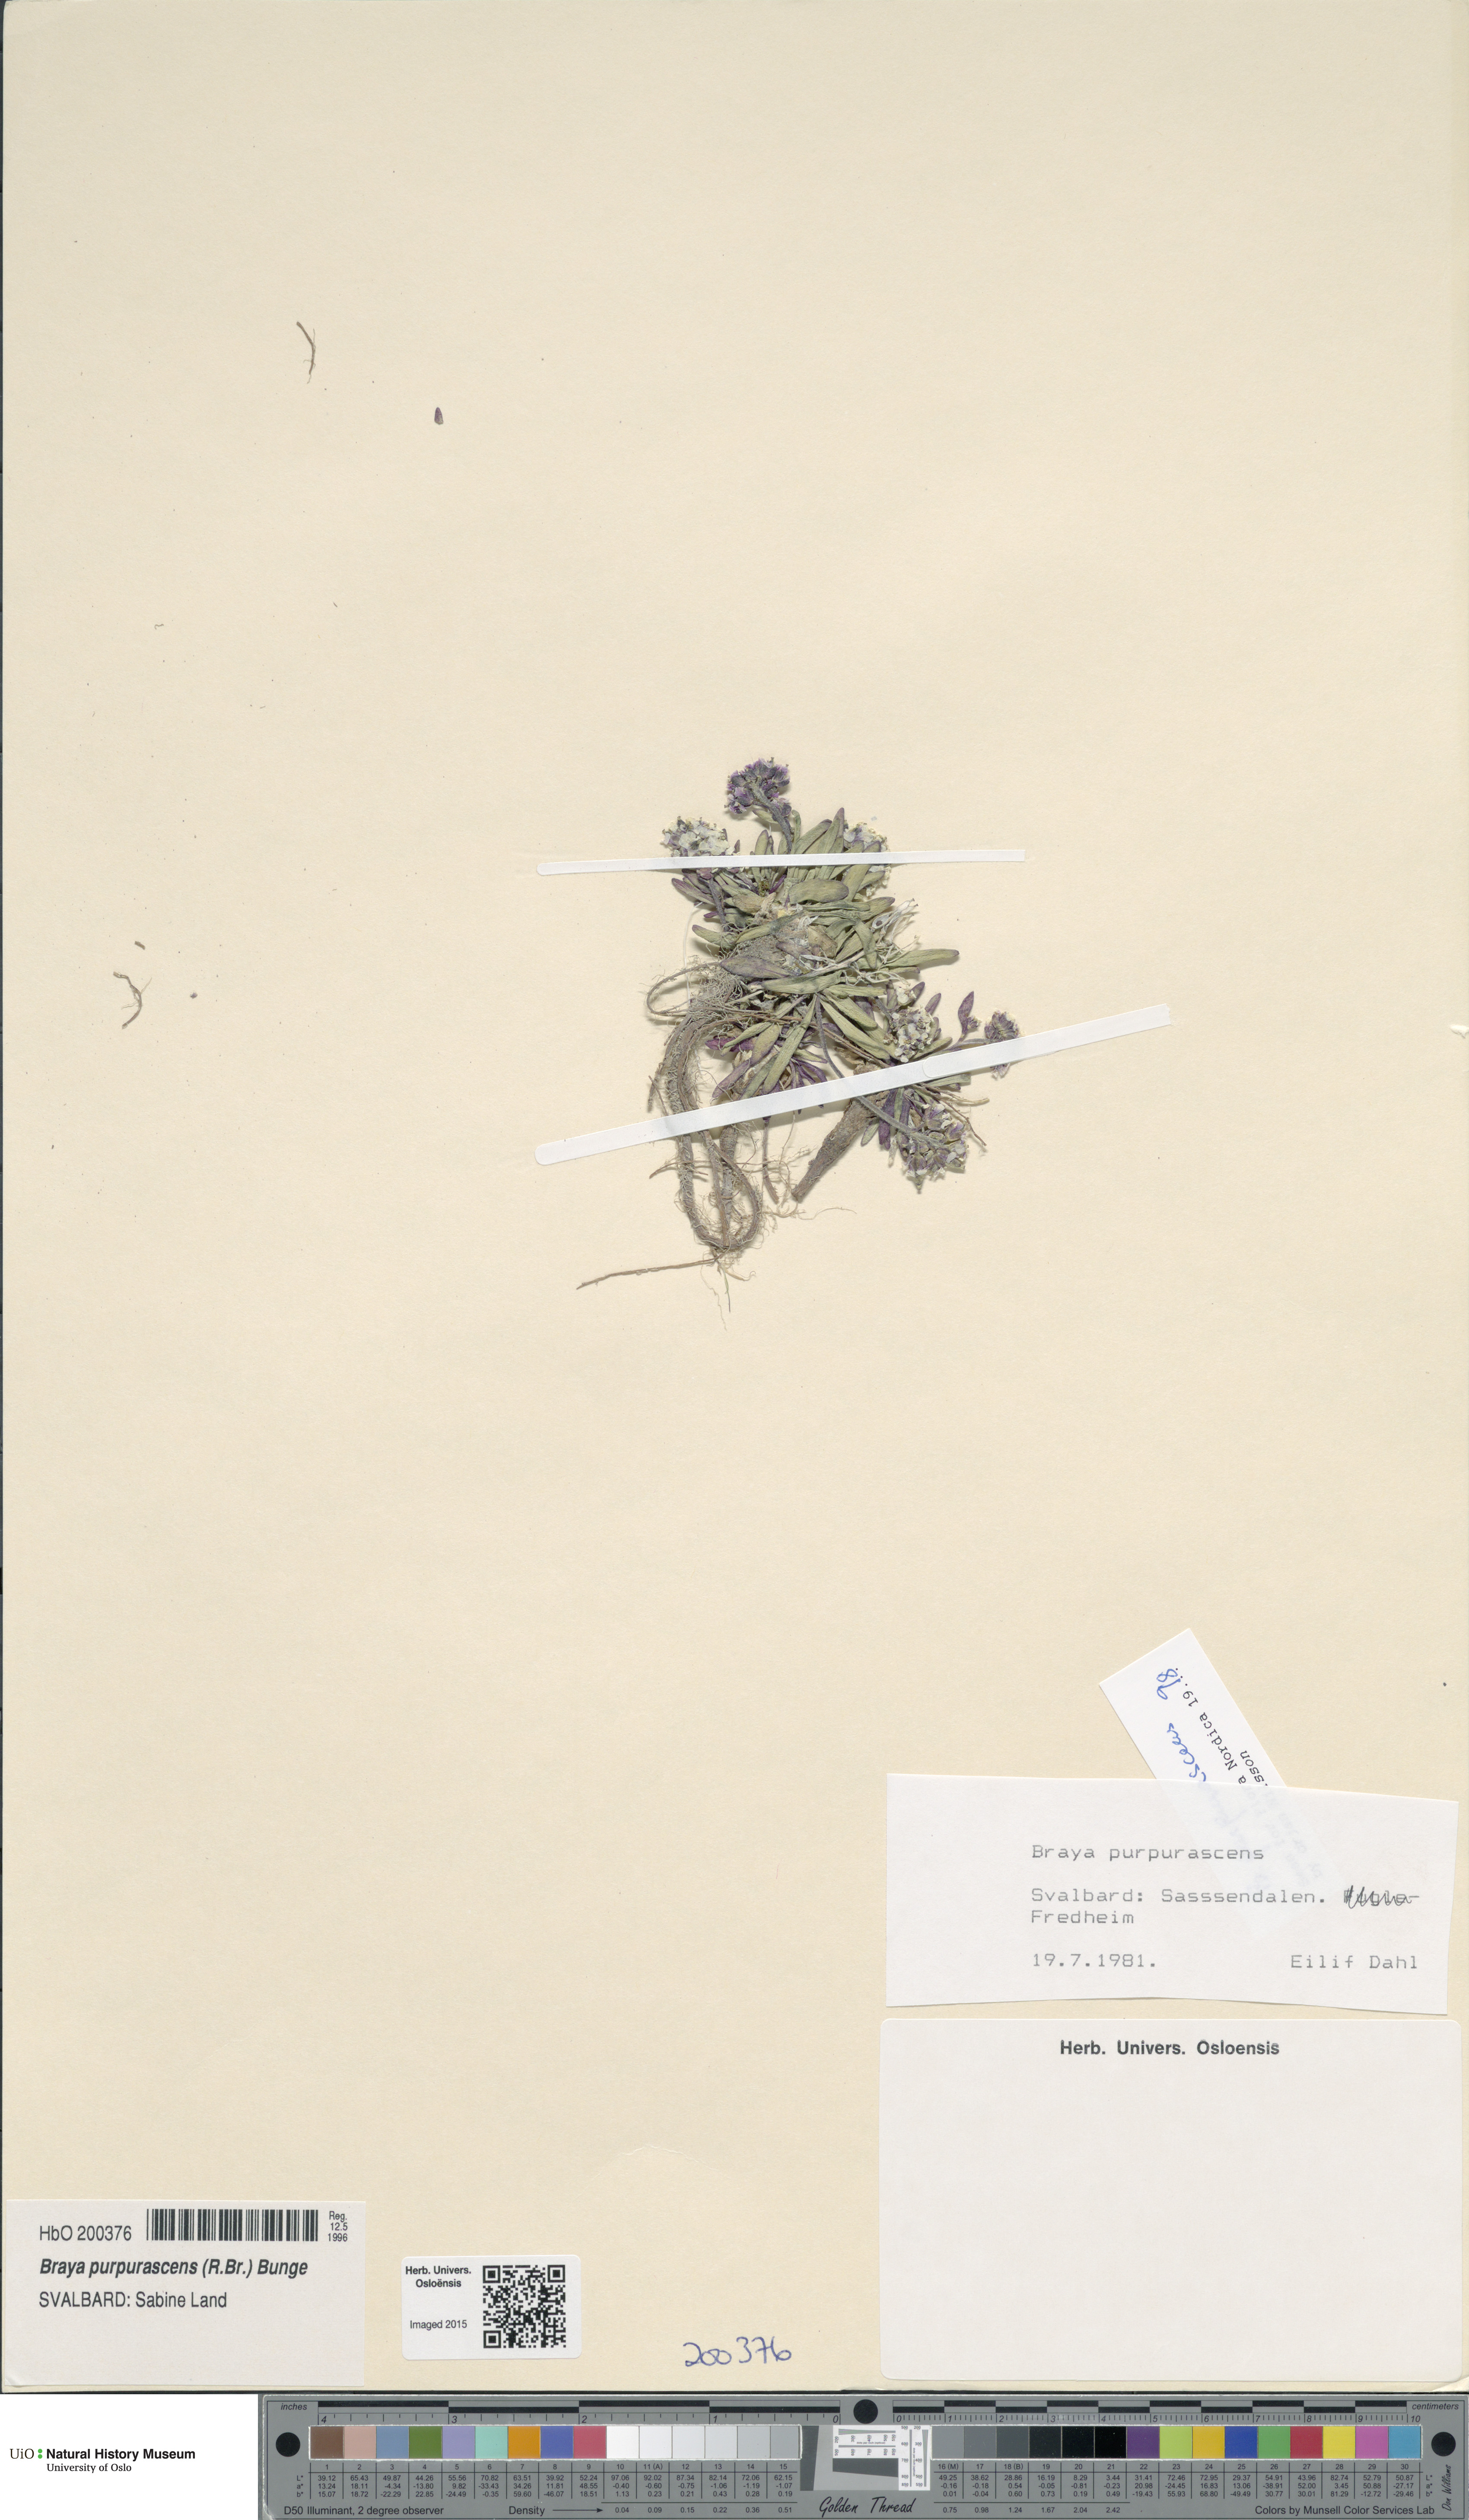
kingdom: Plantae
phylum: Tracheophyta
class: Magnoliopsida
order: Brassicales
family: Brassicaceae
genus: Braya
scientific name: Braya purpurascens
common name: Alpine braya
